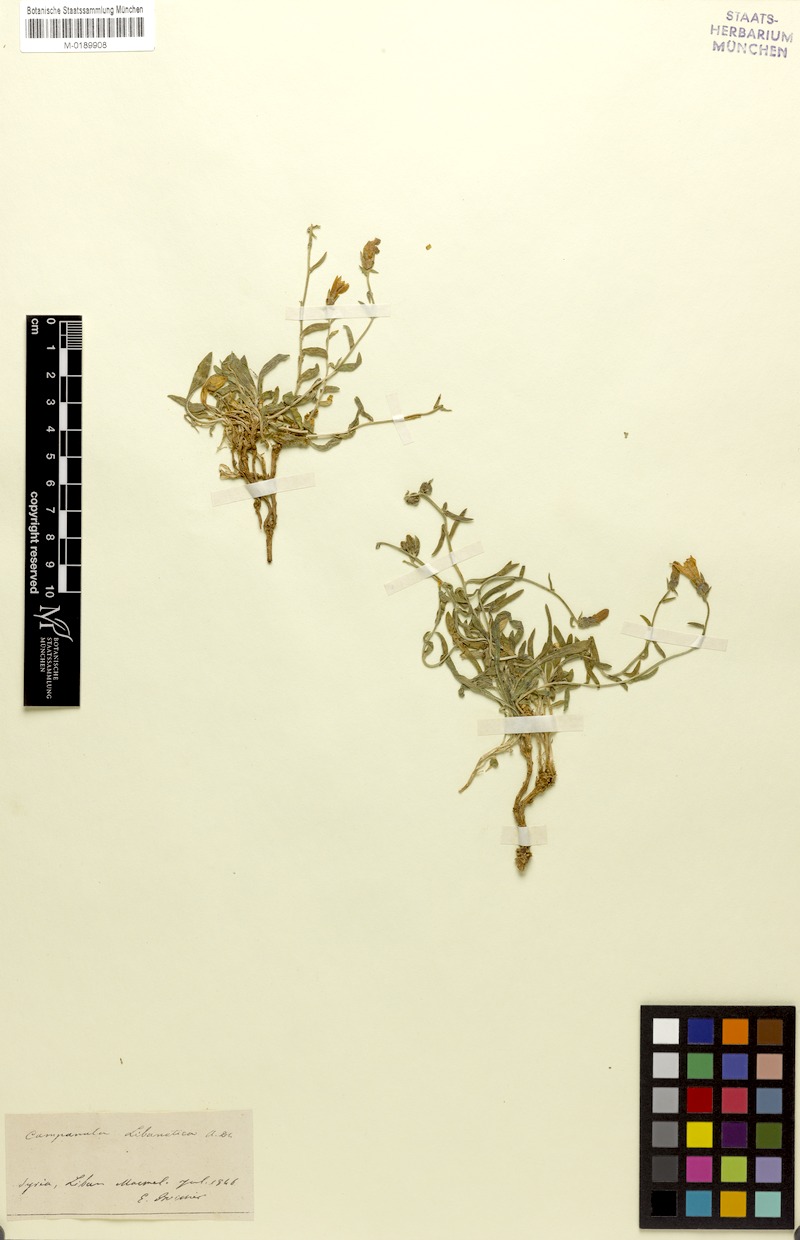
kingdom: Plantae
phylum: Tracheophyta
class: Magnoliopsida
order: Asterales
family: Campanulaceae
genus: Campanula
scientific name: Campanula stricta
